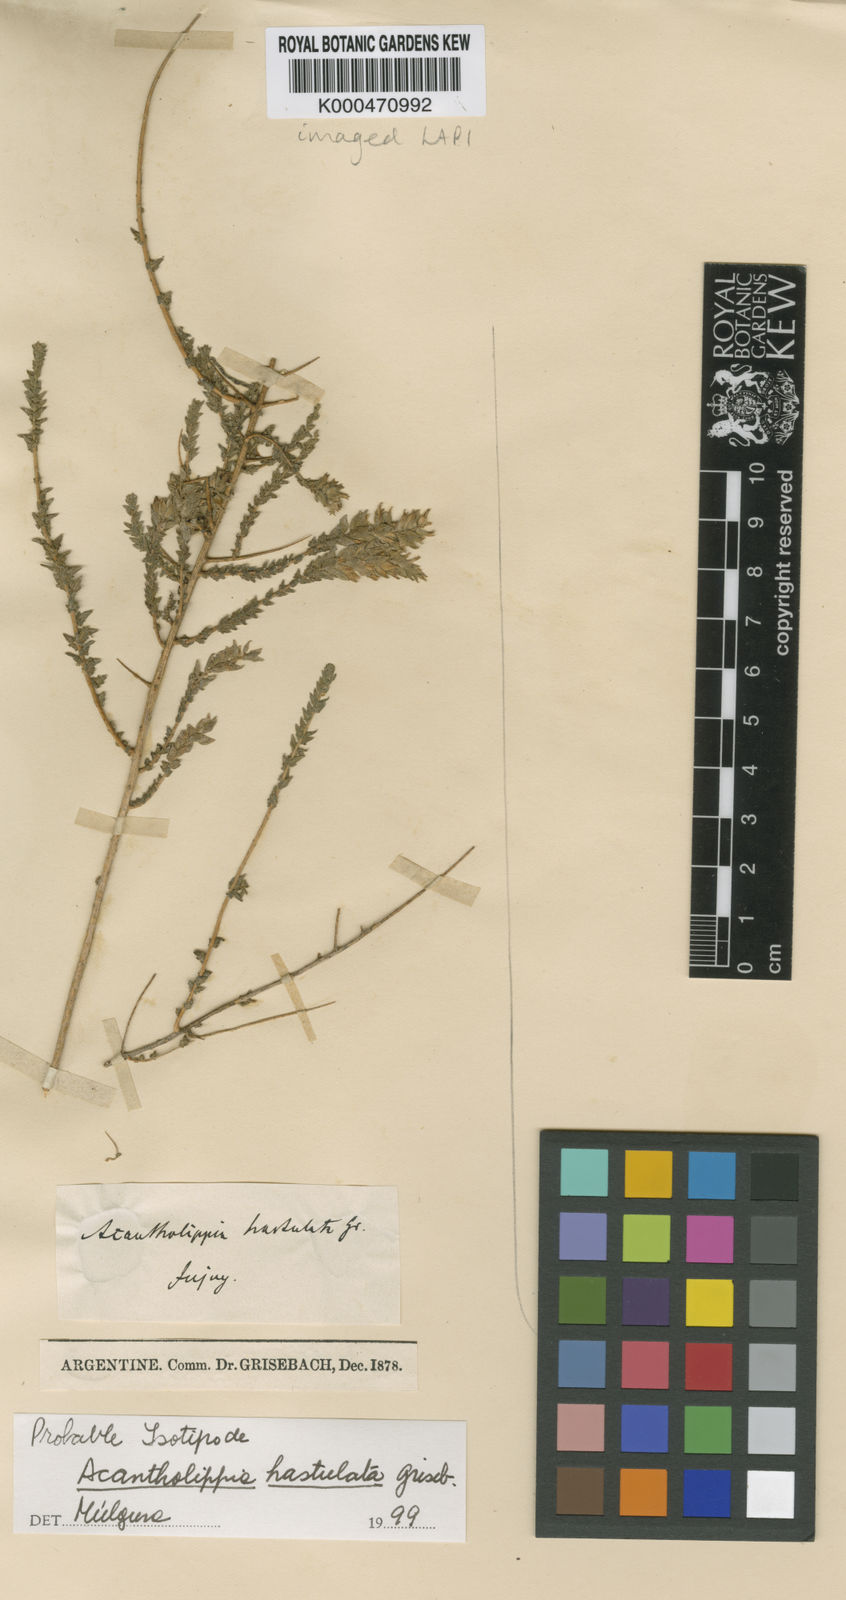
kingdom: Plantae
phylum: Tracheophyta
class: Magnoliopsida
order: Lamiales
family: Verbenaceae
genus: Aloysia
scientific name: Aloysia salsoloides
